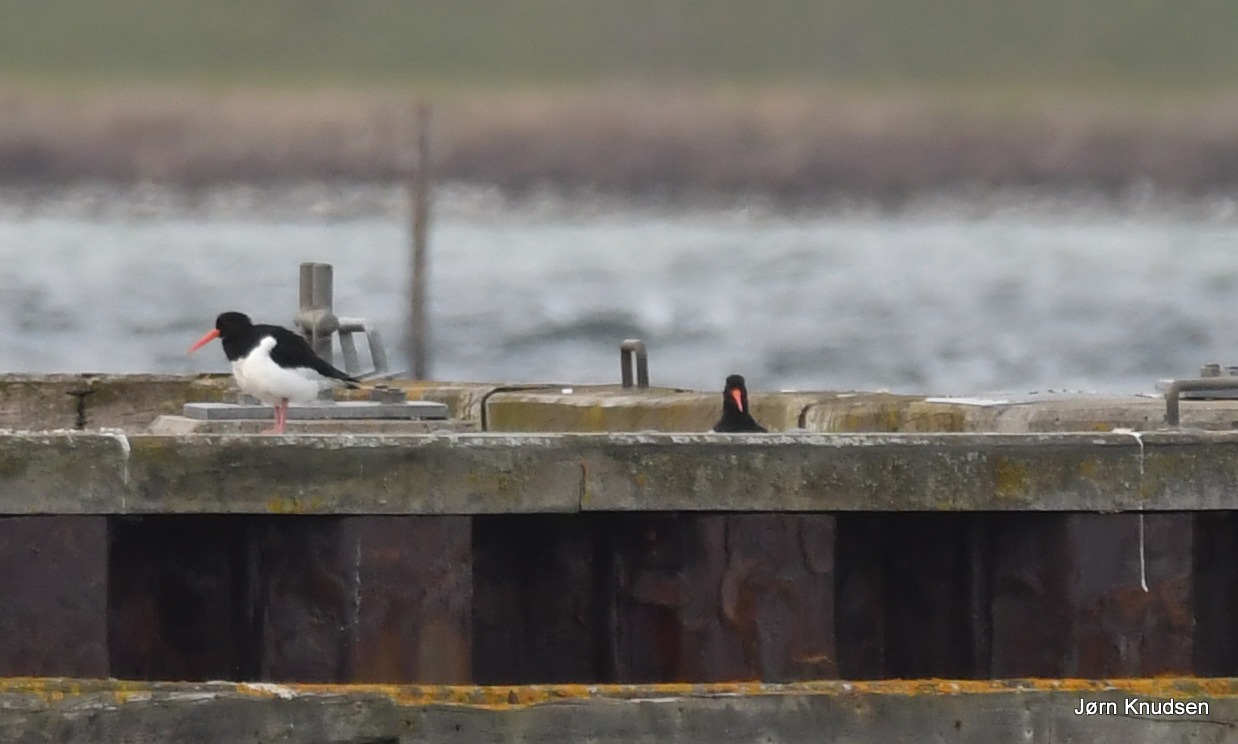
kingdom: Animalia
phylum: Chordata
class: Aves
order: Charadriiformes
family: Haematopodidae
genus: Haematopus
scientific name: Haematopus ostralegus
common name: Strandskade
